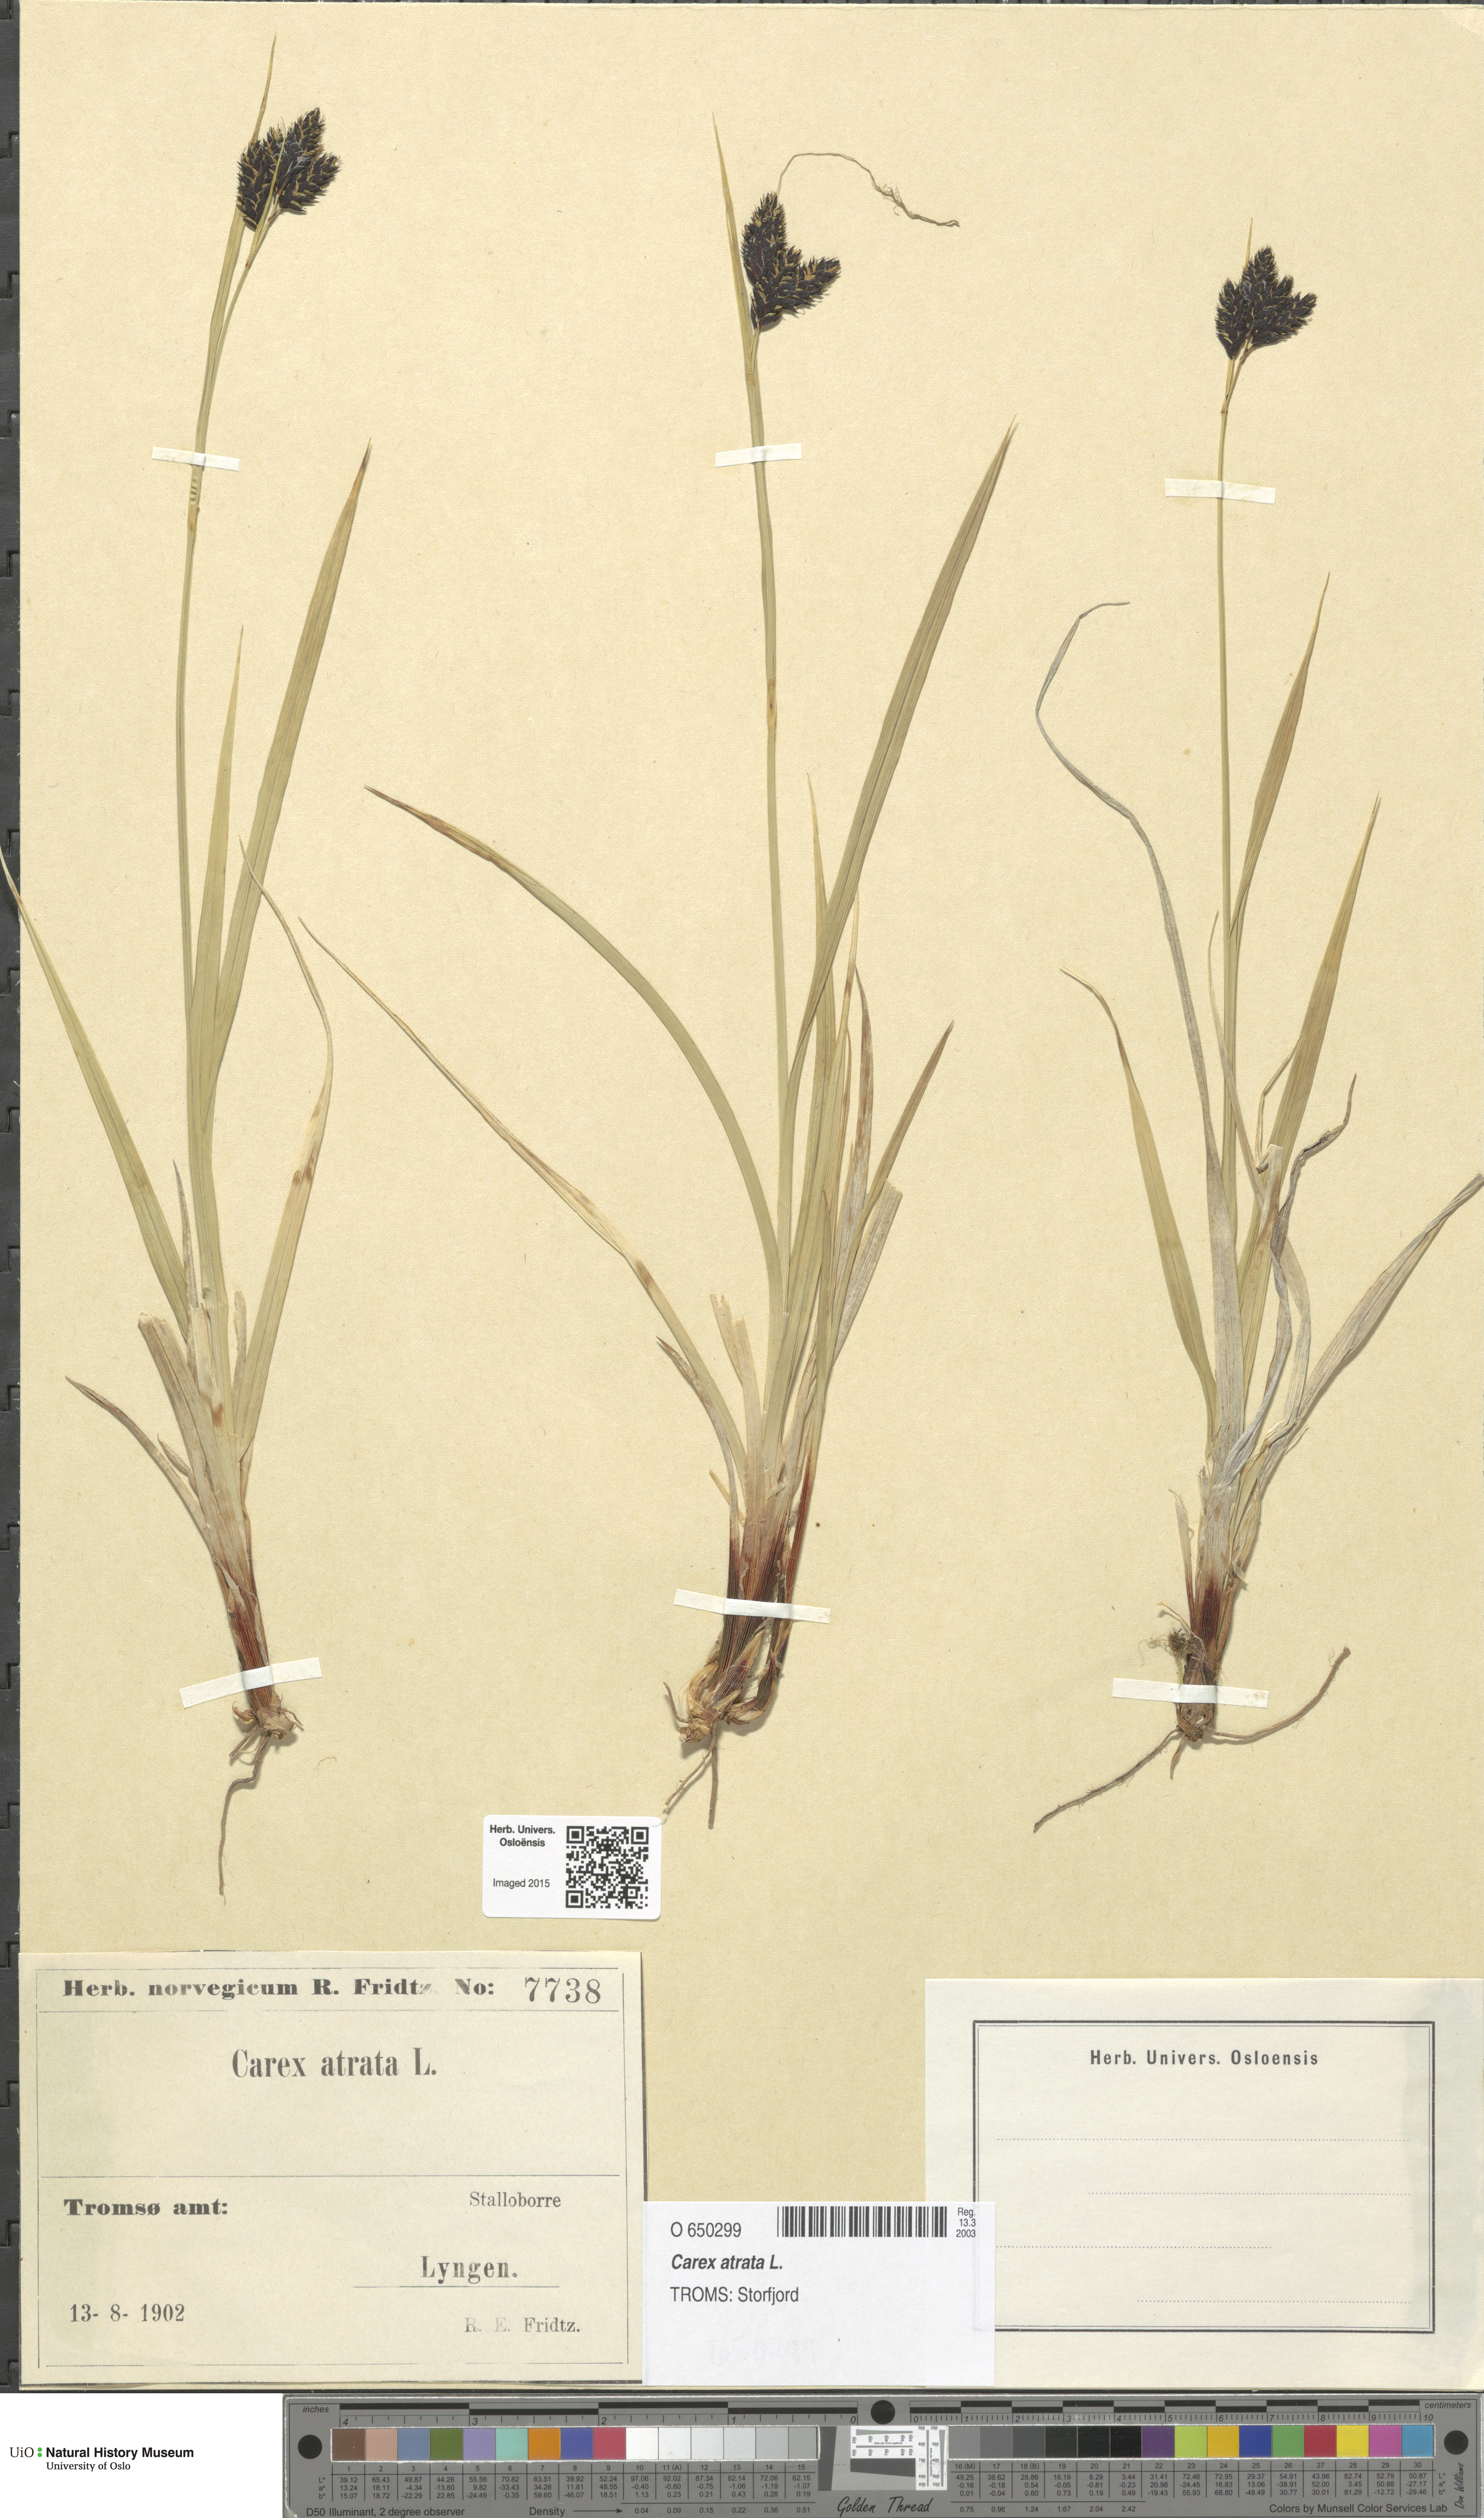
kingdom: Plantae
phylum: Tracheophyta
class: Liliopsida
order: Poales
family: Cyperaceae
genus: Carex
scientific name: Carex atrata
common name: Black alpine sedge
